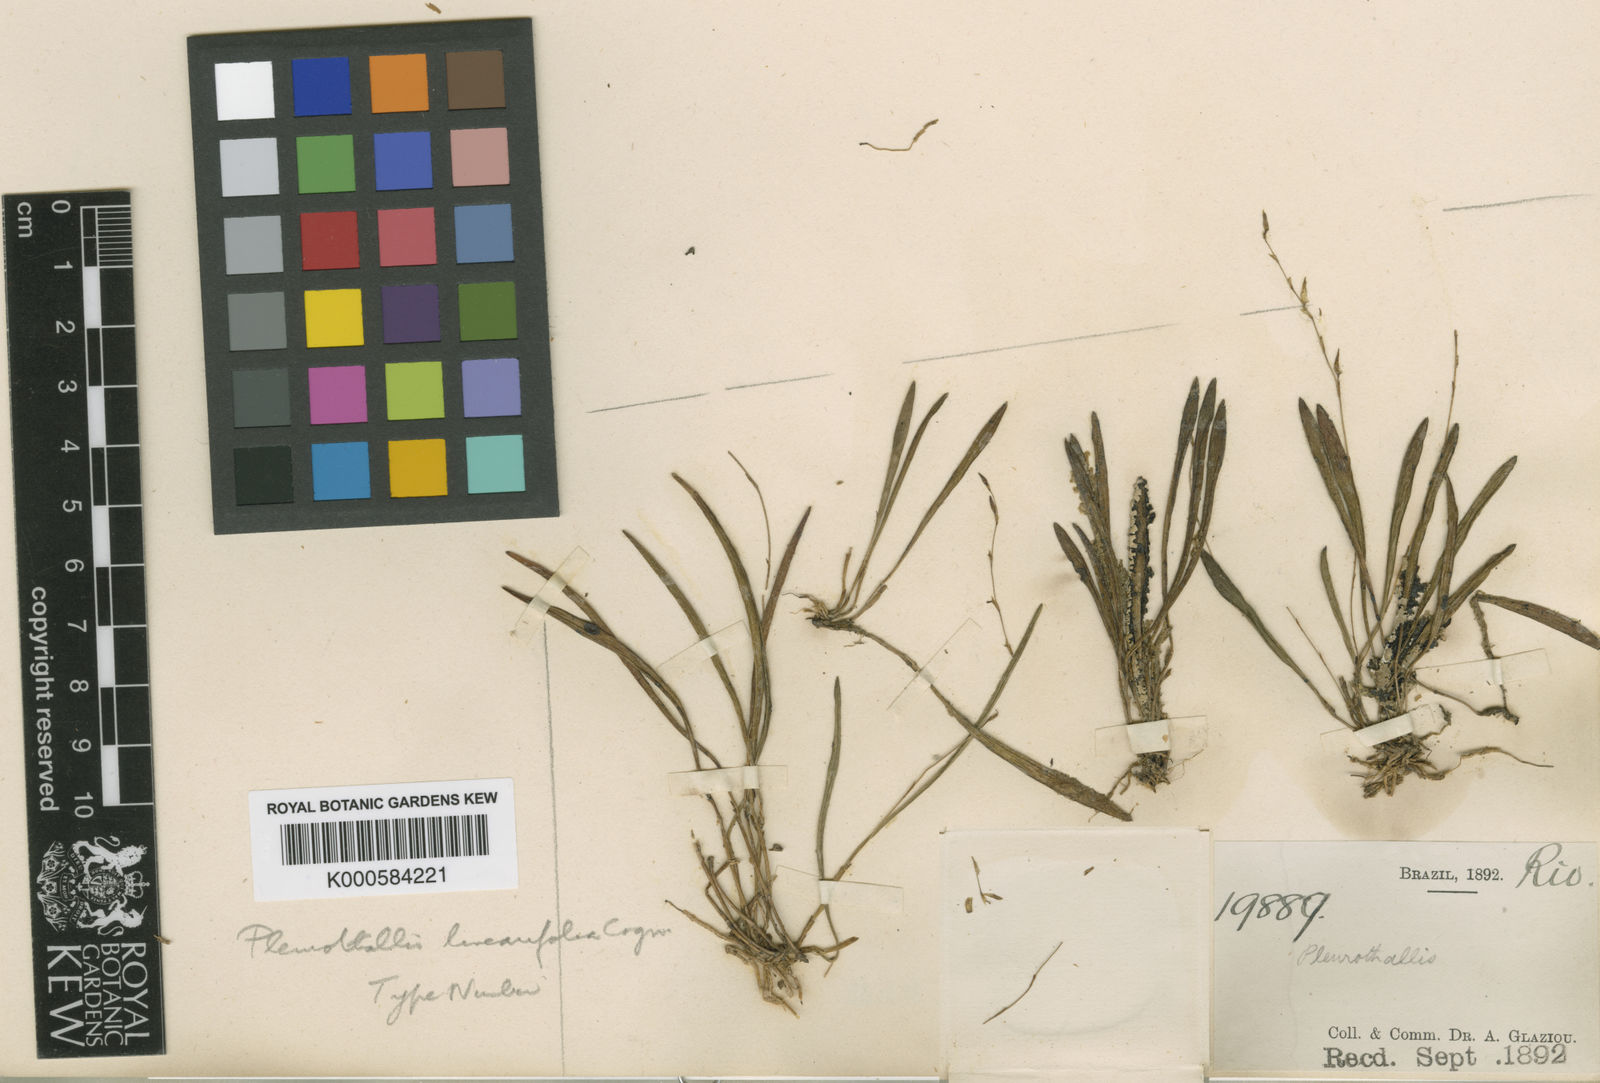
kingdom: Plantae
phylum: Tracheophyta
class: Liliopsida
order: Asparagales
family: Orchidaceae
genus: Anathallis
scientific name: Anathallis linearifolia
